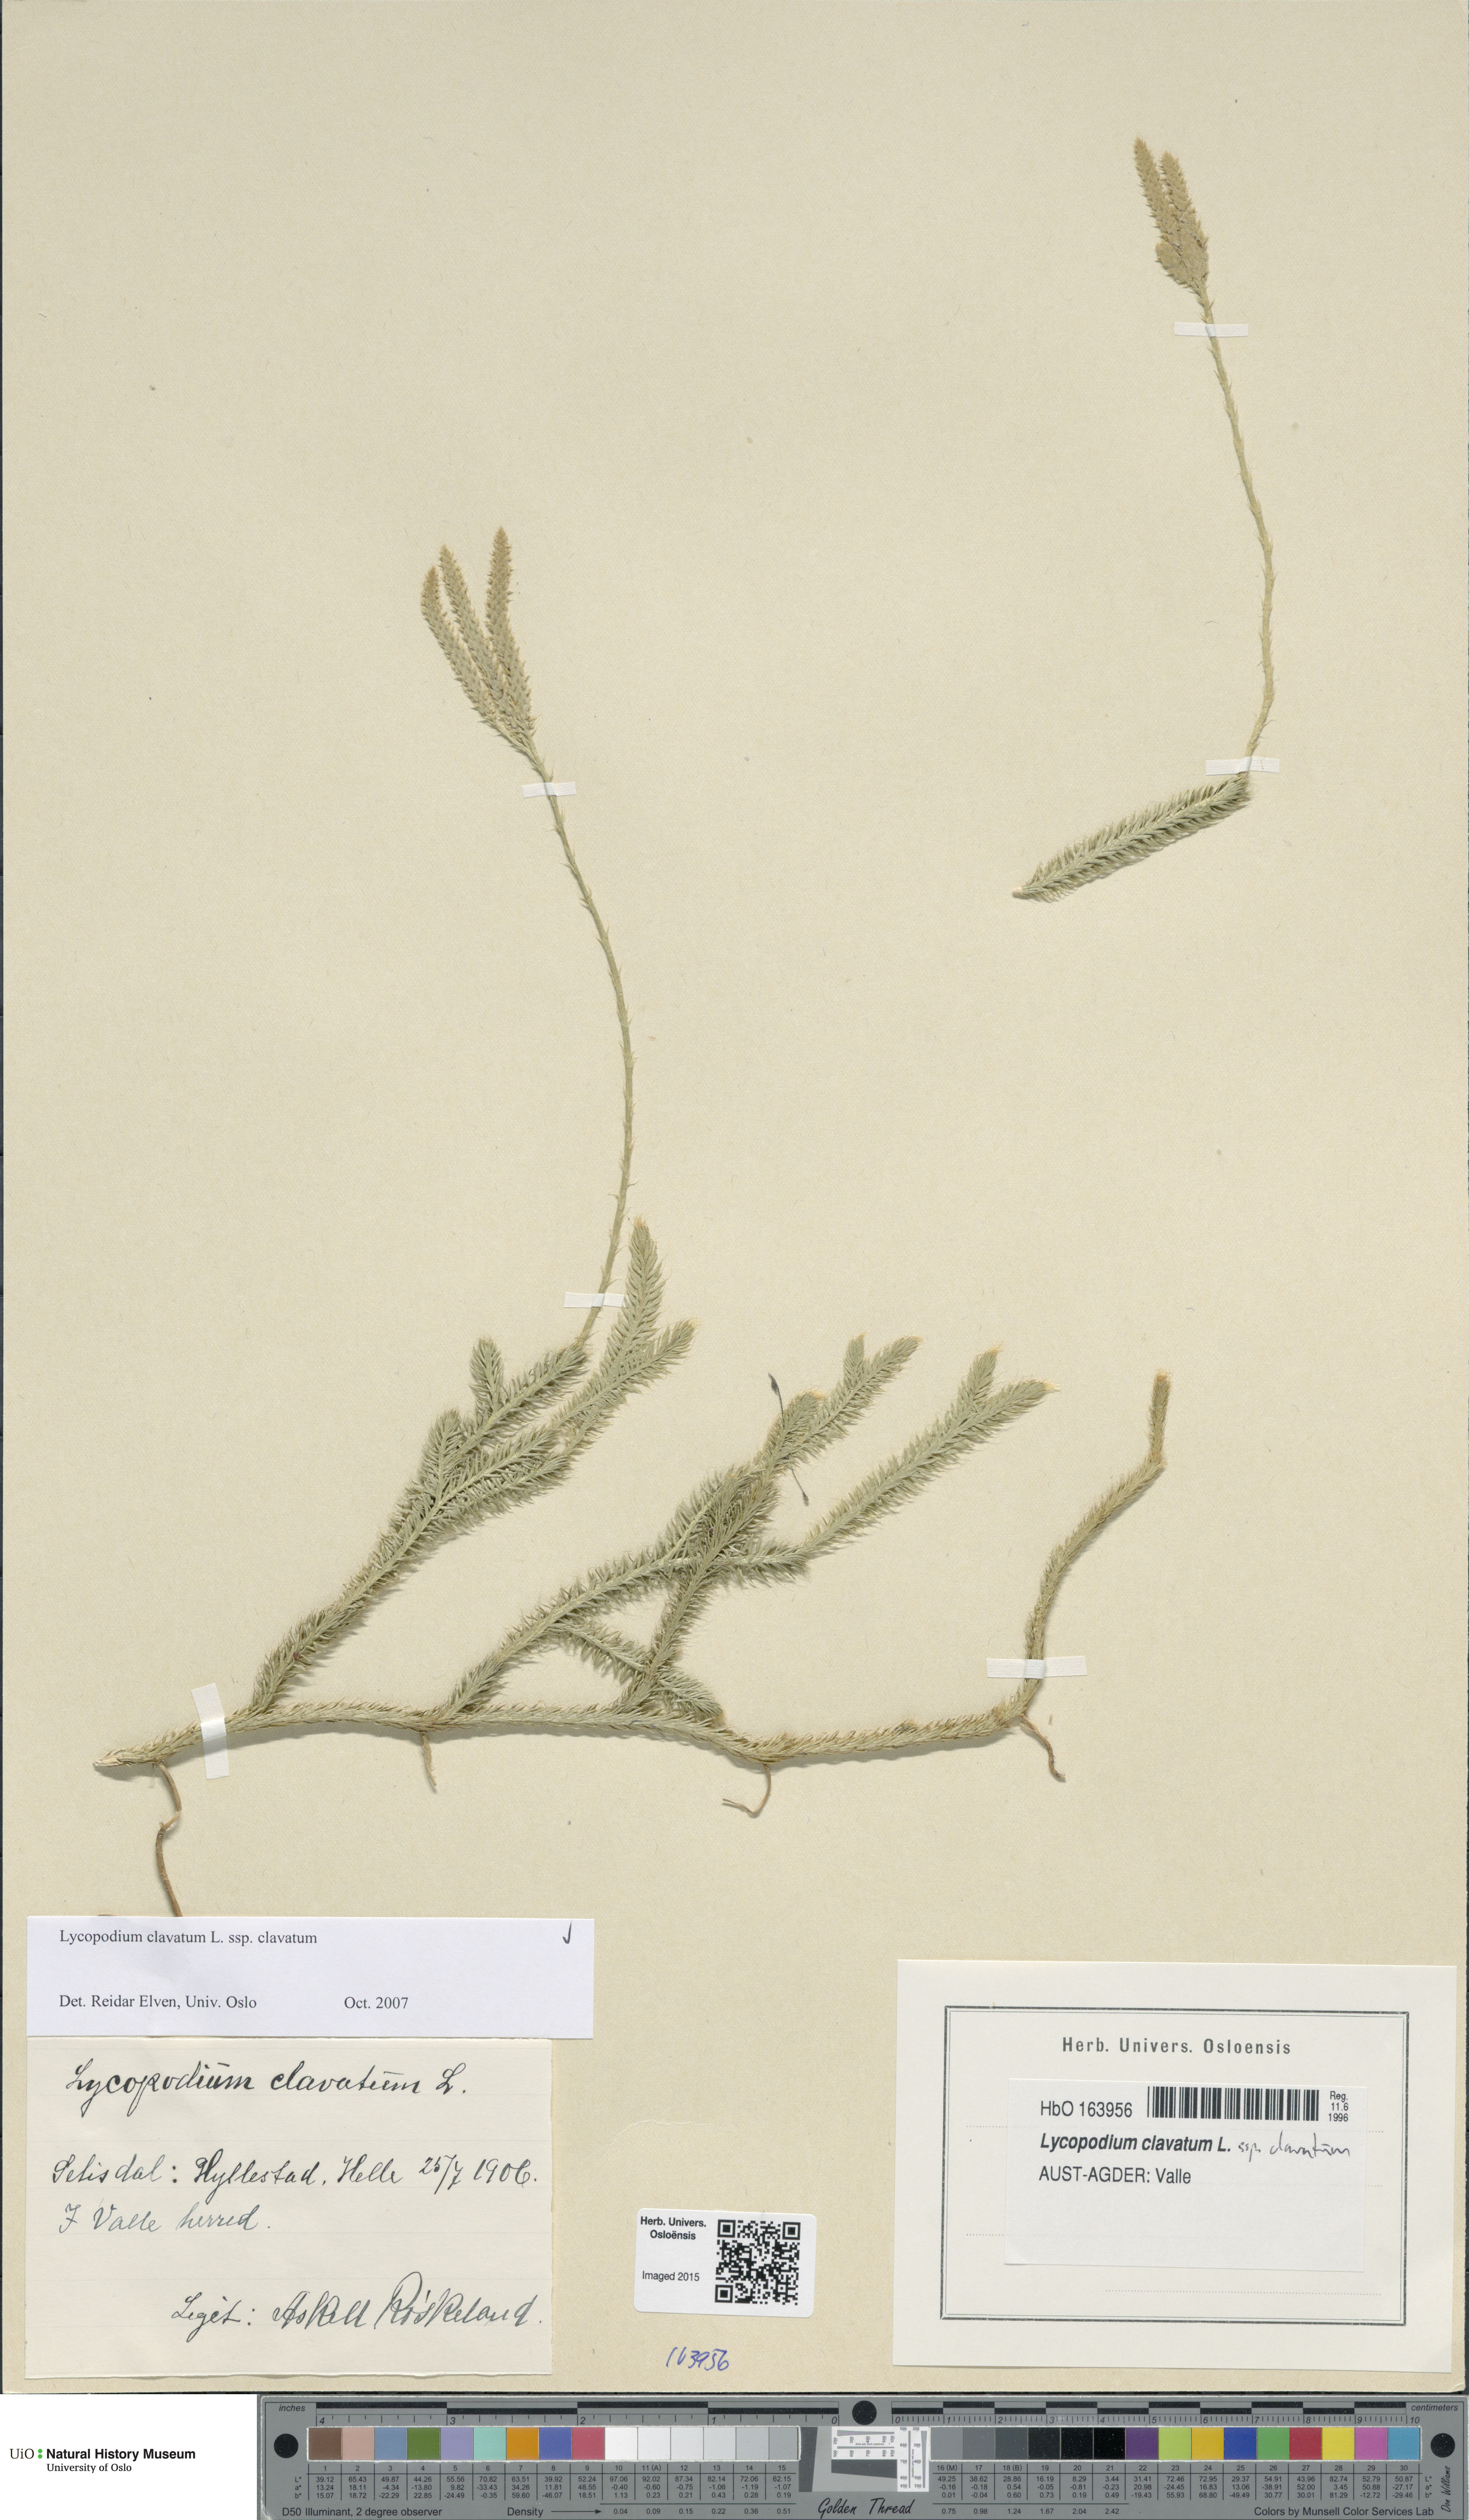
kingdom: Plantae
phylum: Tracheophyta
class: Lycopodiopsida
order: Lycopodiales
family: Lycopodiaceae
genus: Lycopodium
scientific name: Lycopodium clavatum
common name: Stag's-horn clubmoss
